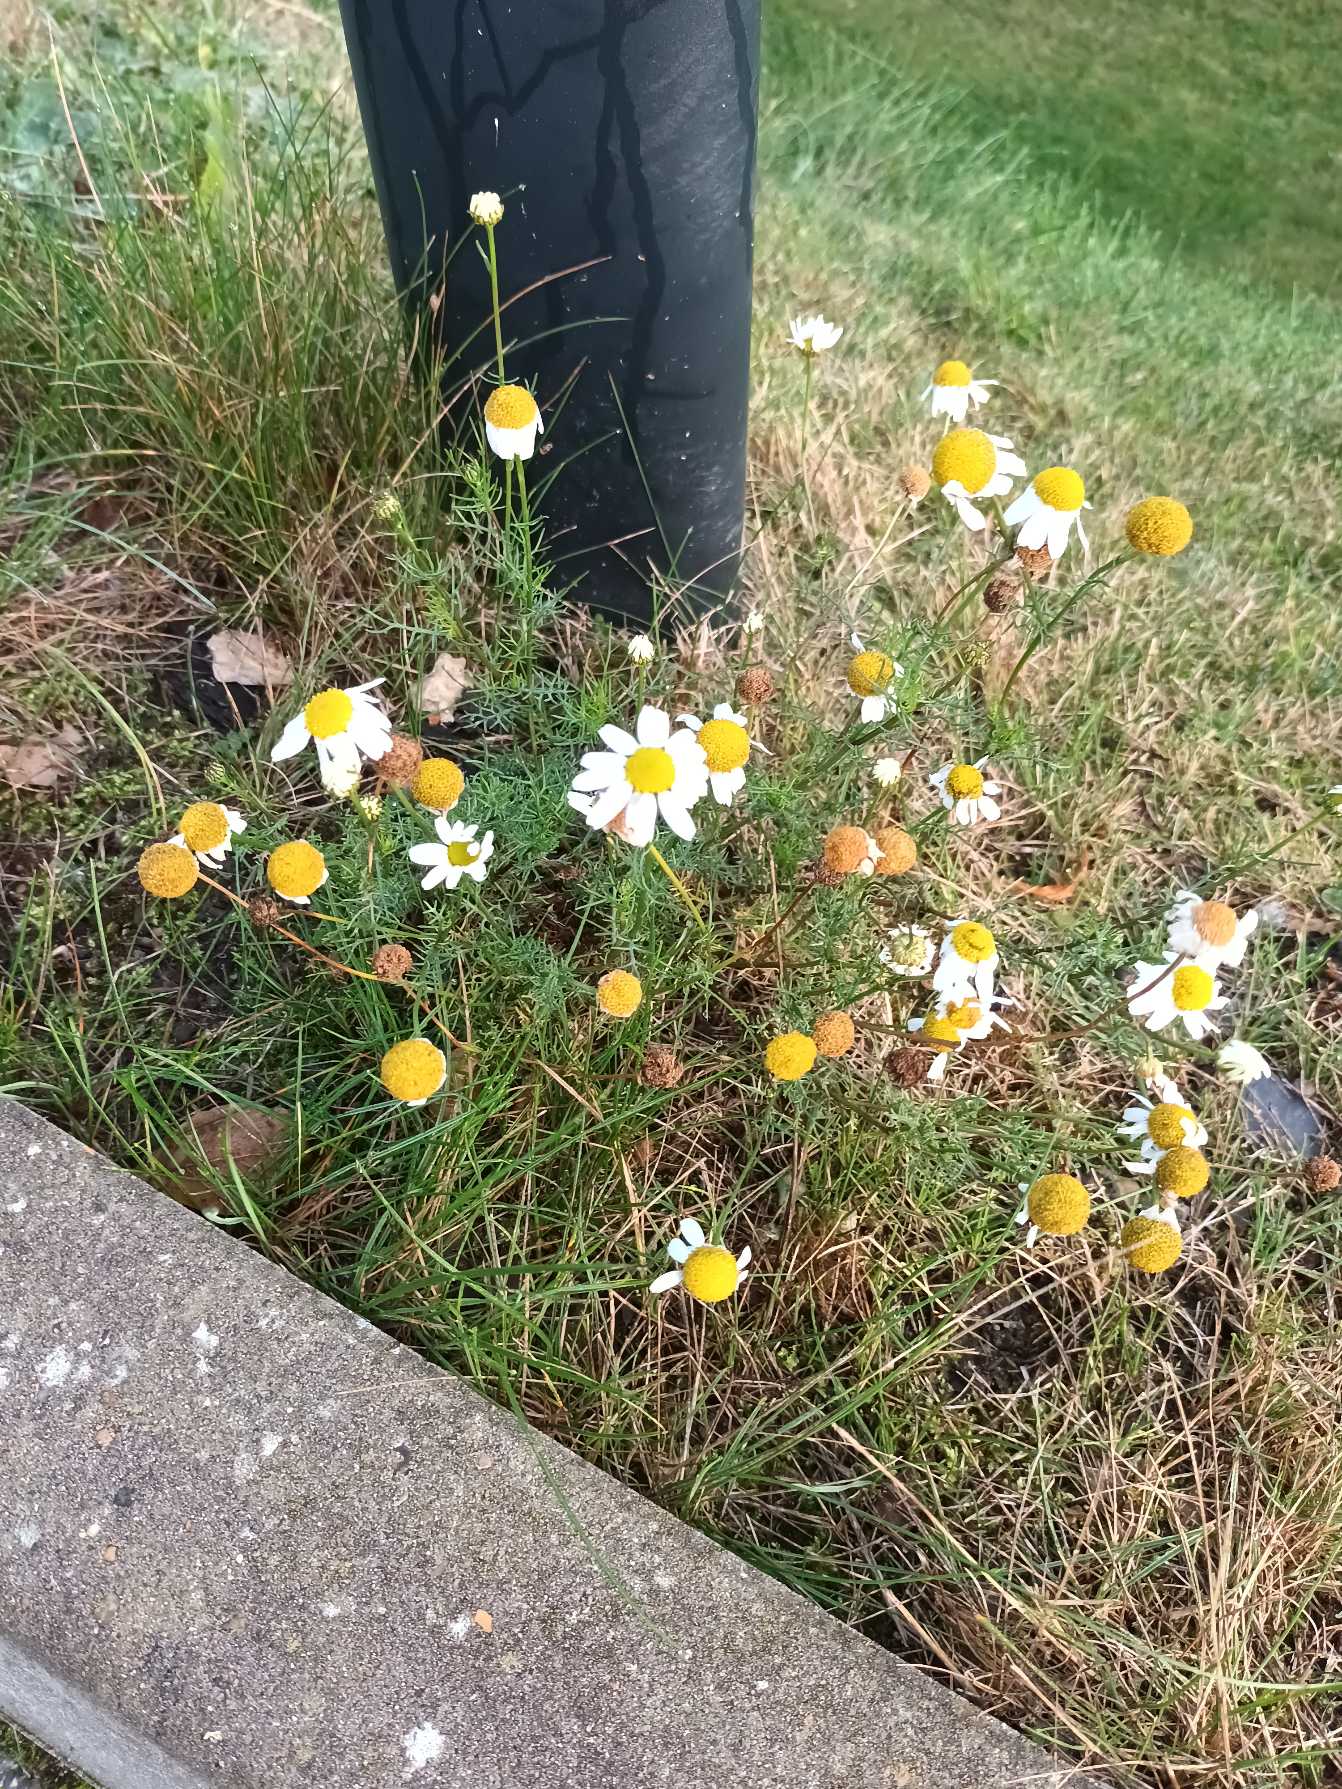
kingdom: Plantae
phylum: Tracheophyta
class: Magnoliopsida
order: Asterales
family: Asteraceae
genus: Tripleurospermum
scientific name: Tripleurospermum inodorum
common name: Lugtløs kamille
